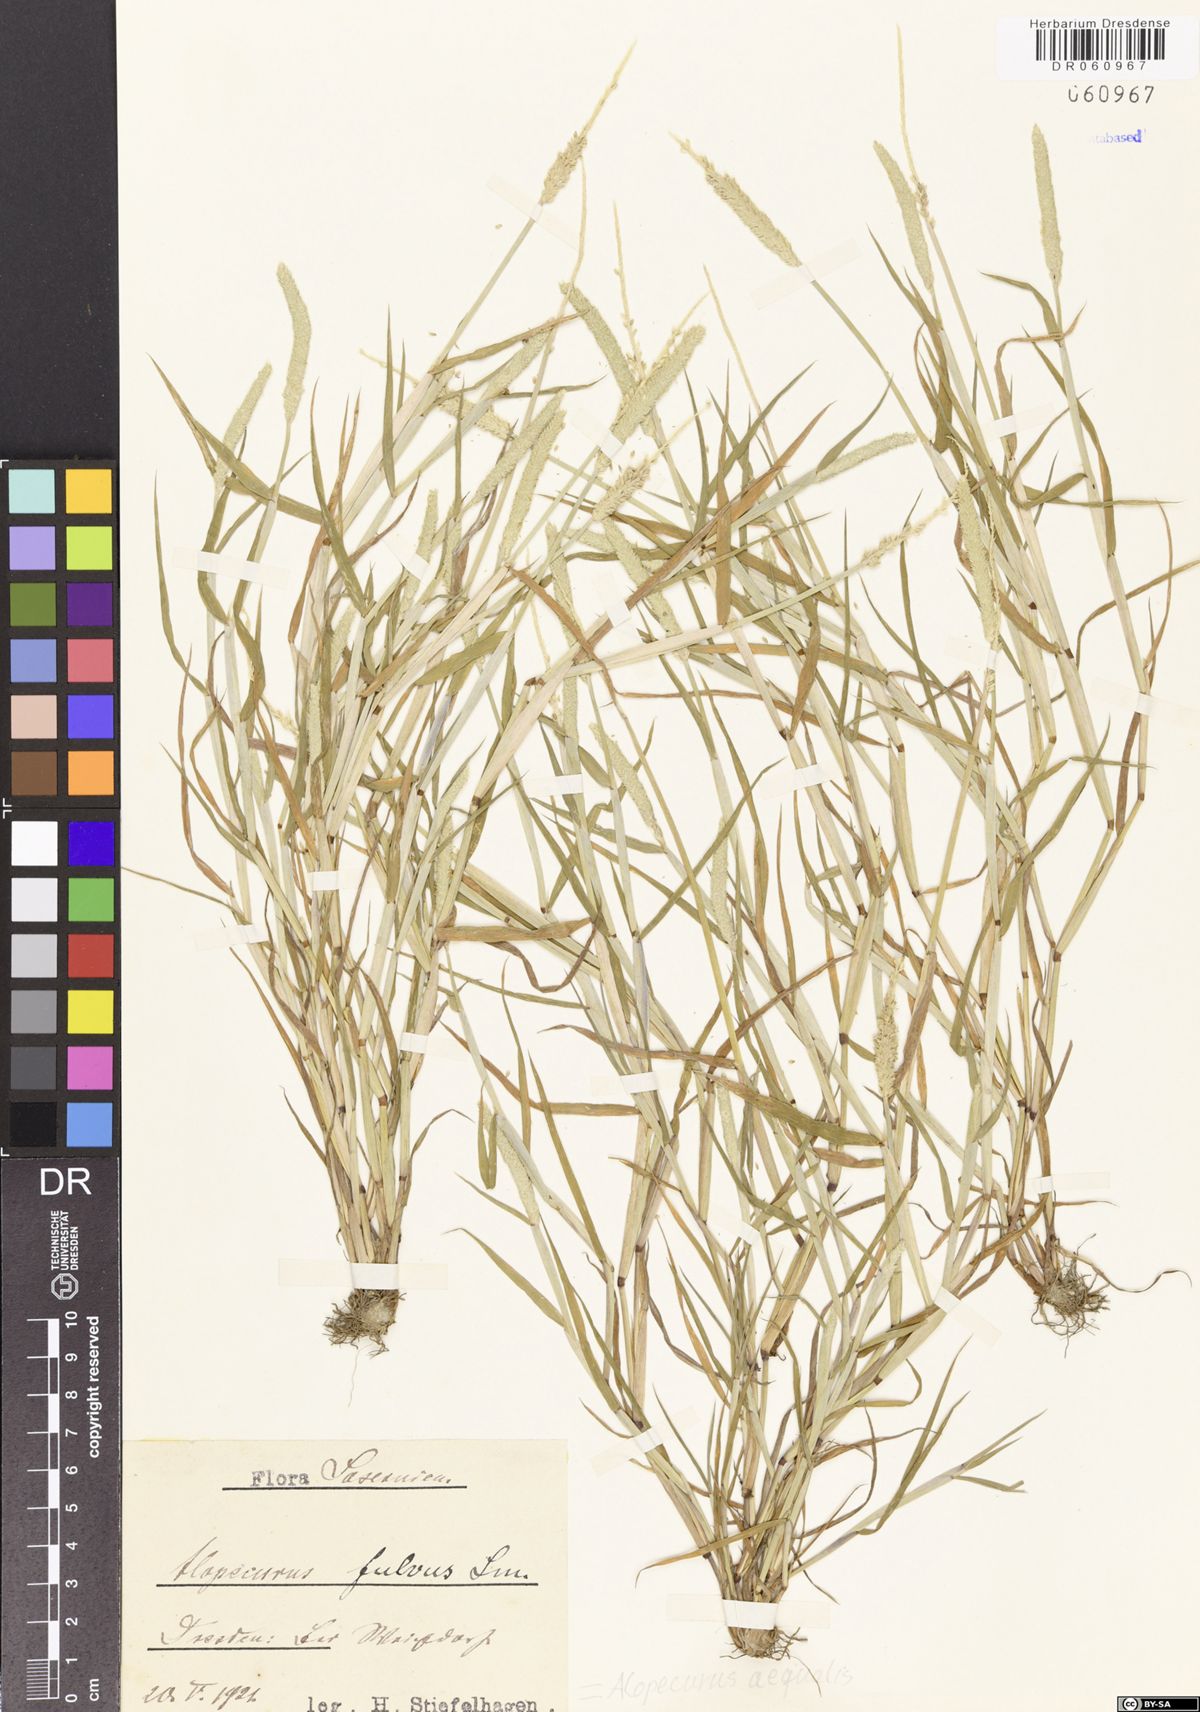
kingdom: Plantae
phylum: Tracheophyta
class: Liliopsida
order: Poales
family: Poaceae
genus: Alopecurus
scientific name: Alopecurus aequalis
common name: Orange foxtail
